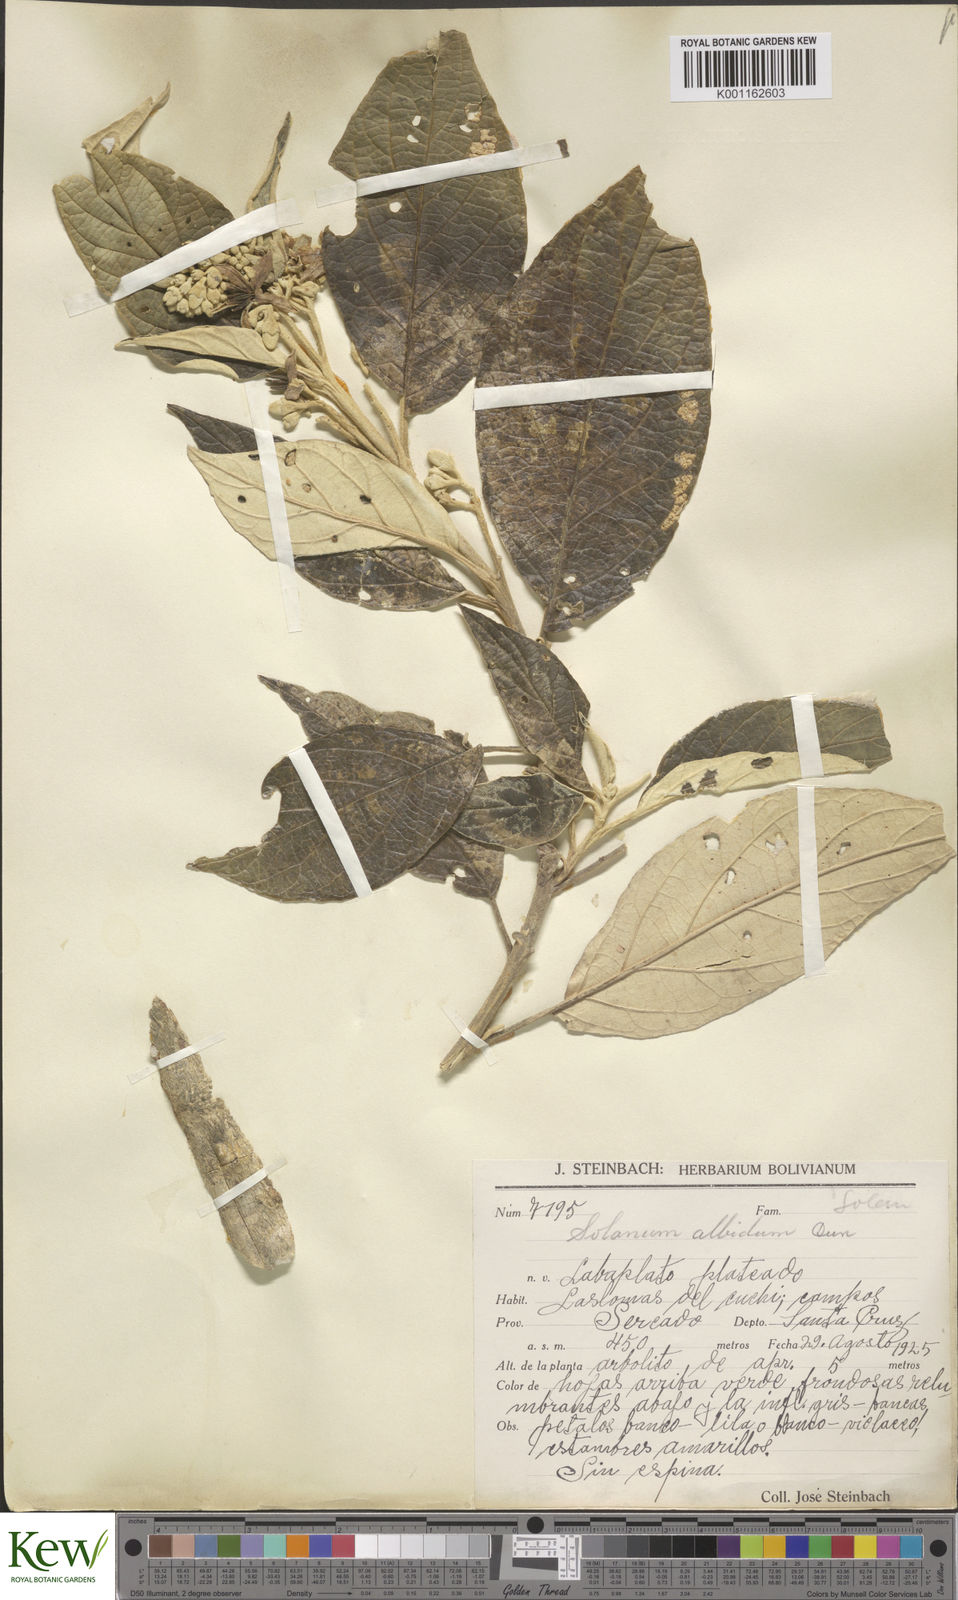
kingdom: Plantae
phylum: Tracheophyta
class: Magnoliopsida
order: Solanales
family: Solanaceae
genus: Solanum
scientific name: Solanum albidum
